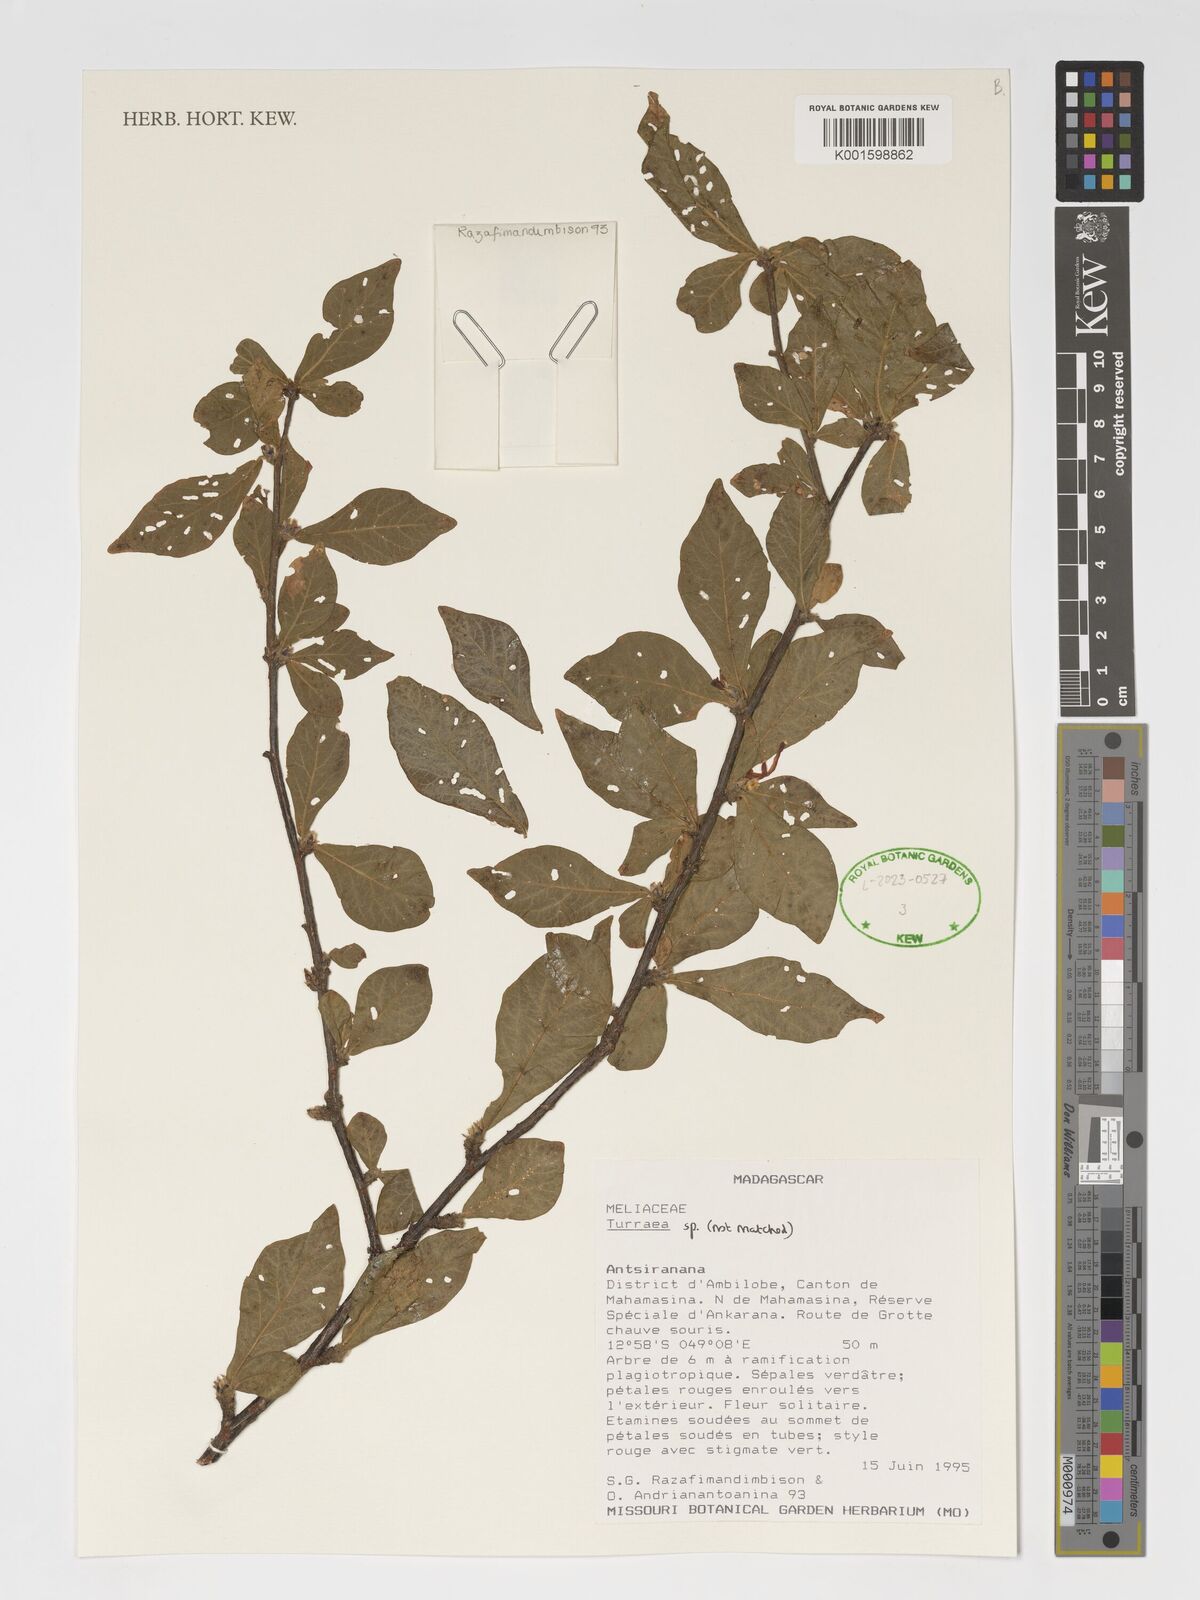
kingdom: Plantae
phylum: Tracheophyta
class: Magnoliopsida
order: Sapindales
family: Meliaceae
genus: Turraea
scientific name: Turraea
